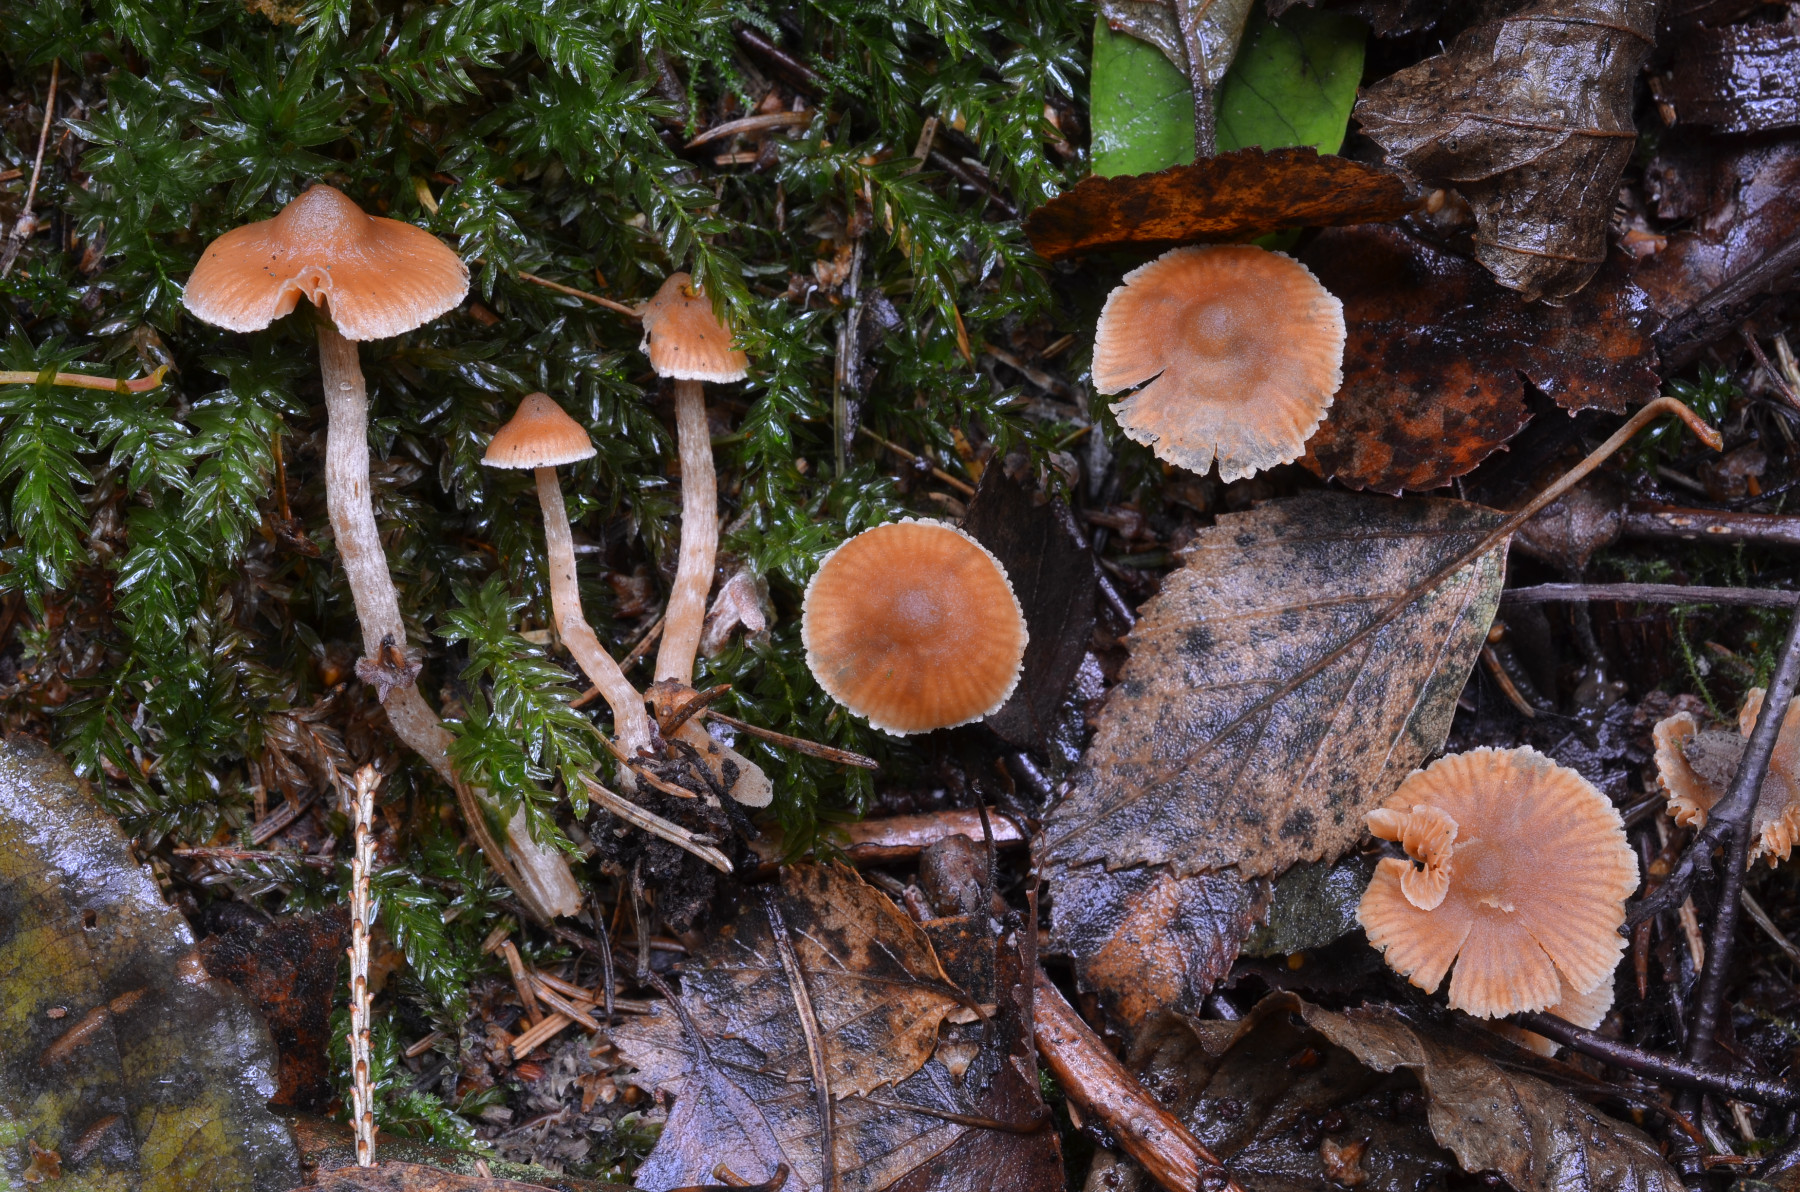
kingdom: Fungi
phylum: Basidiomycota
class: Agaricomycetes
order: Agaricales
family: Cortinariaceae
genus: Cortinarius
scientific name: Cortinarius acutus
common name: spids slørhat
